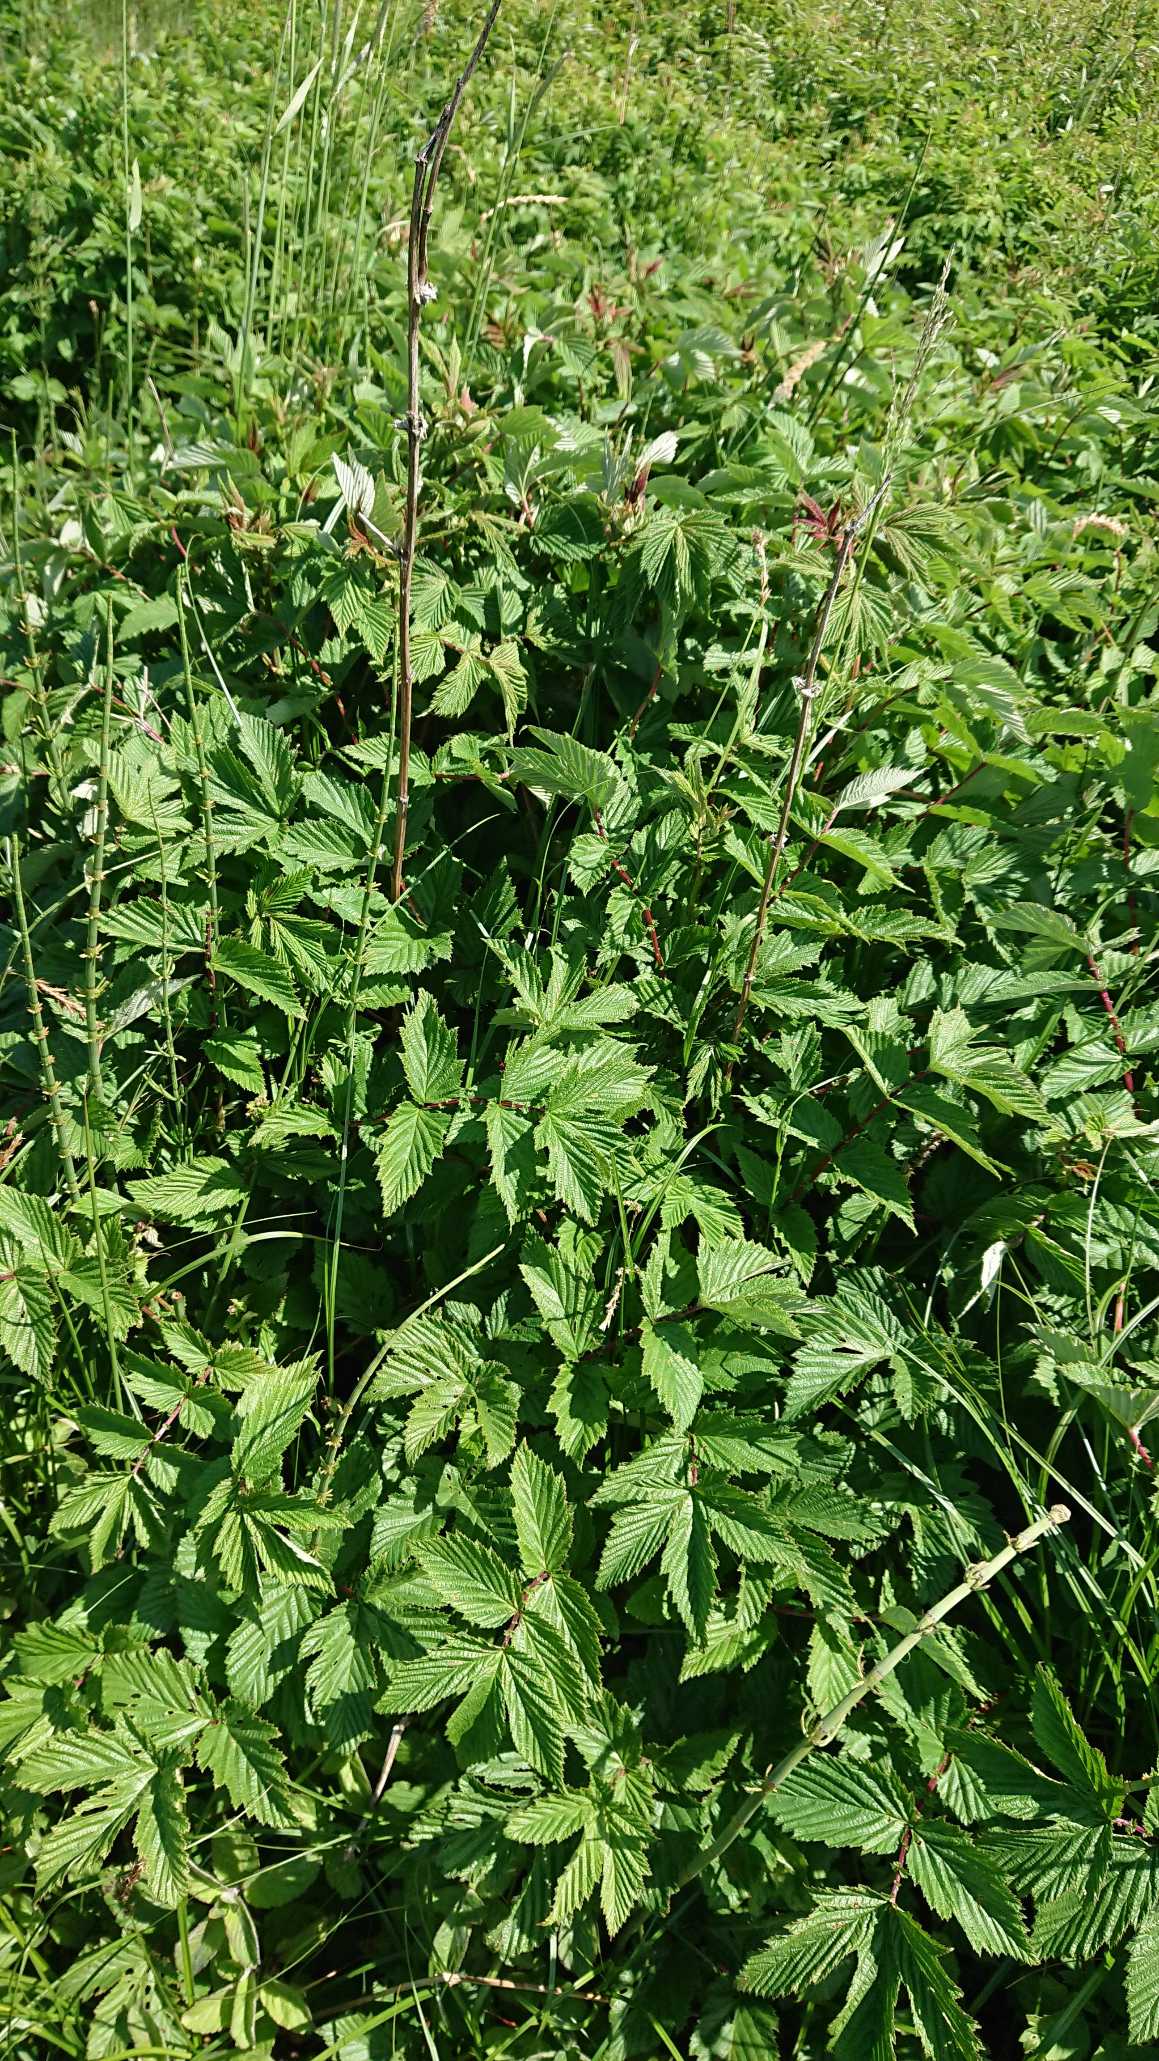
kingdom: Plantae
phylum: Tracheophyta
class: Magnoliopsida
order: Rosales
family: Rosaceae
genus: Filipendula
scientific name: Filipendula ulmaria
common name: Almindelig mjødurt
